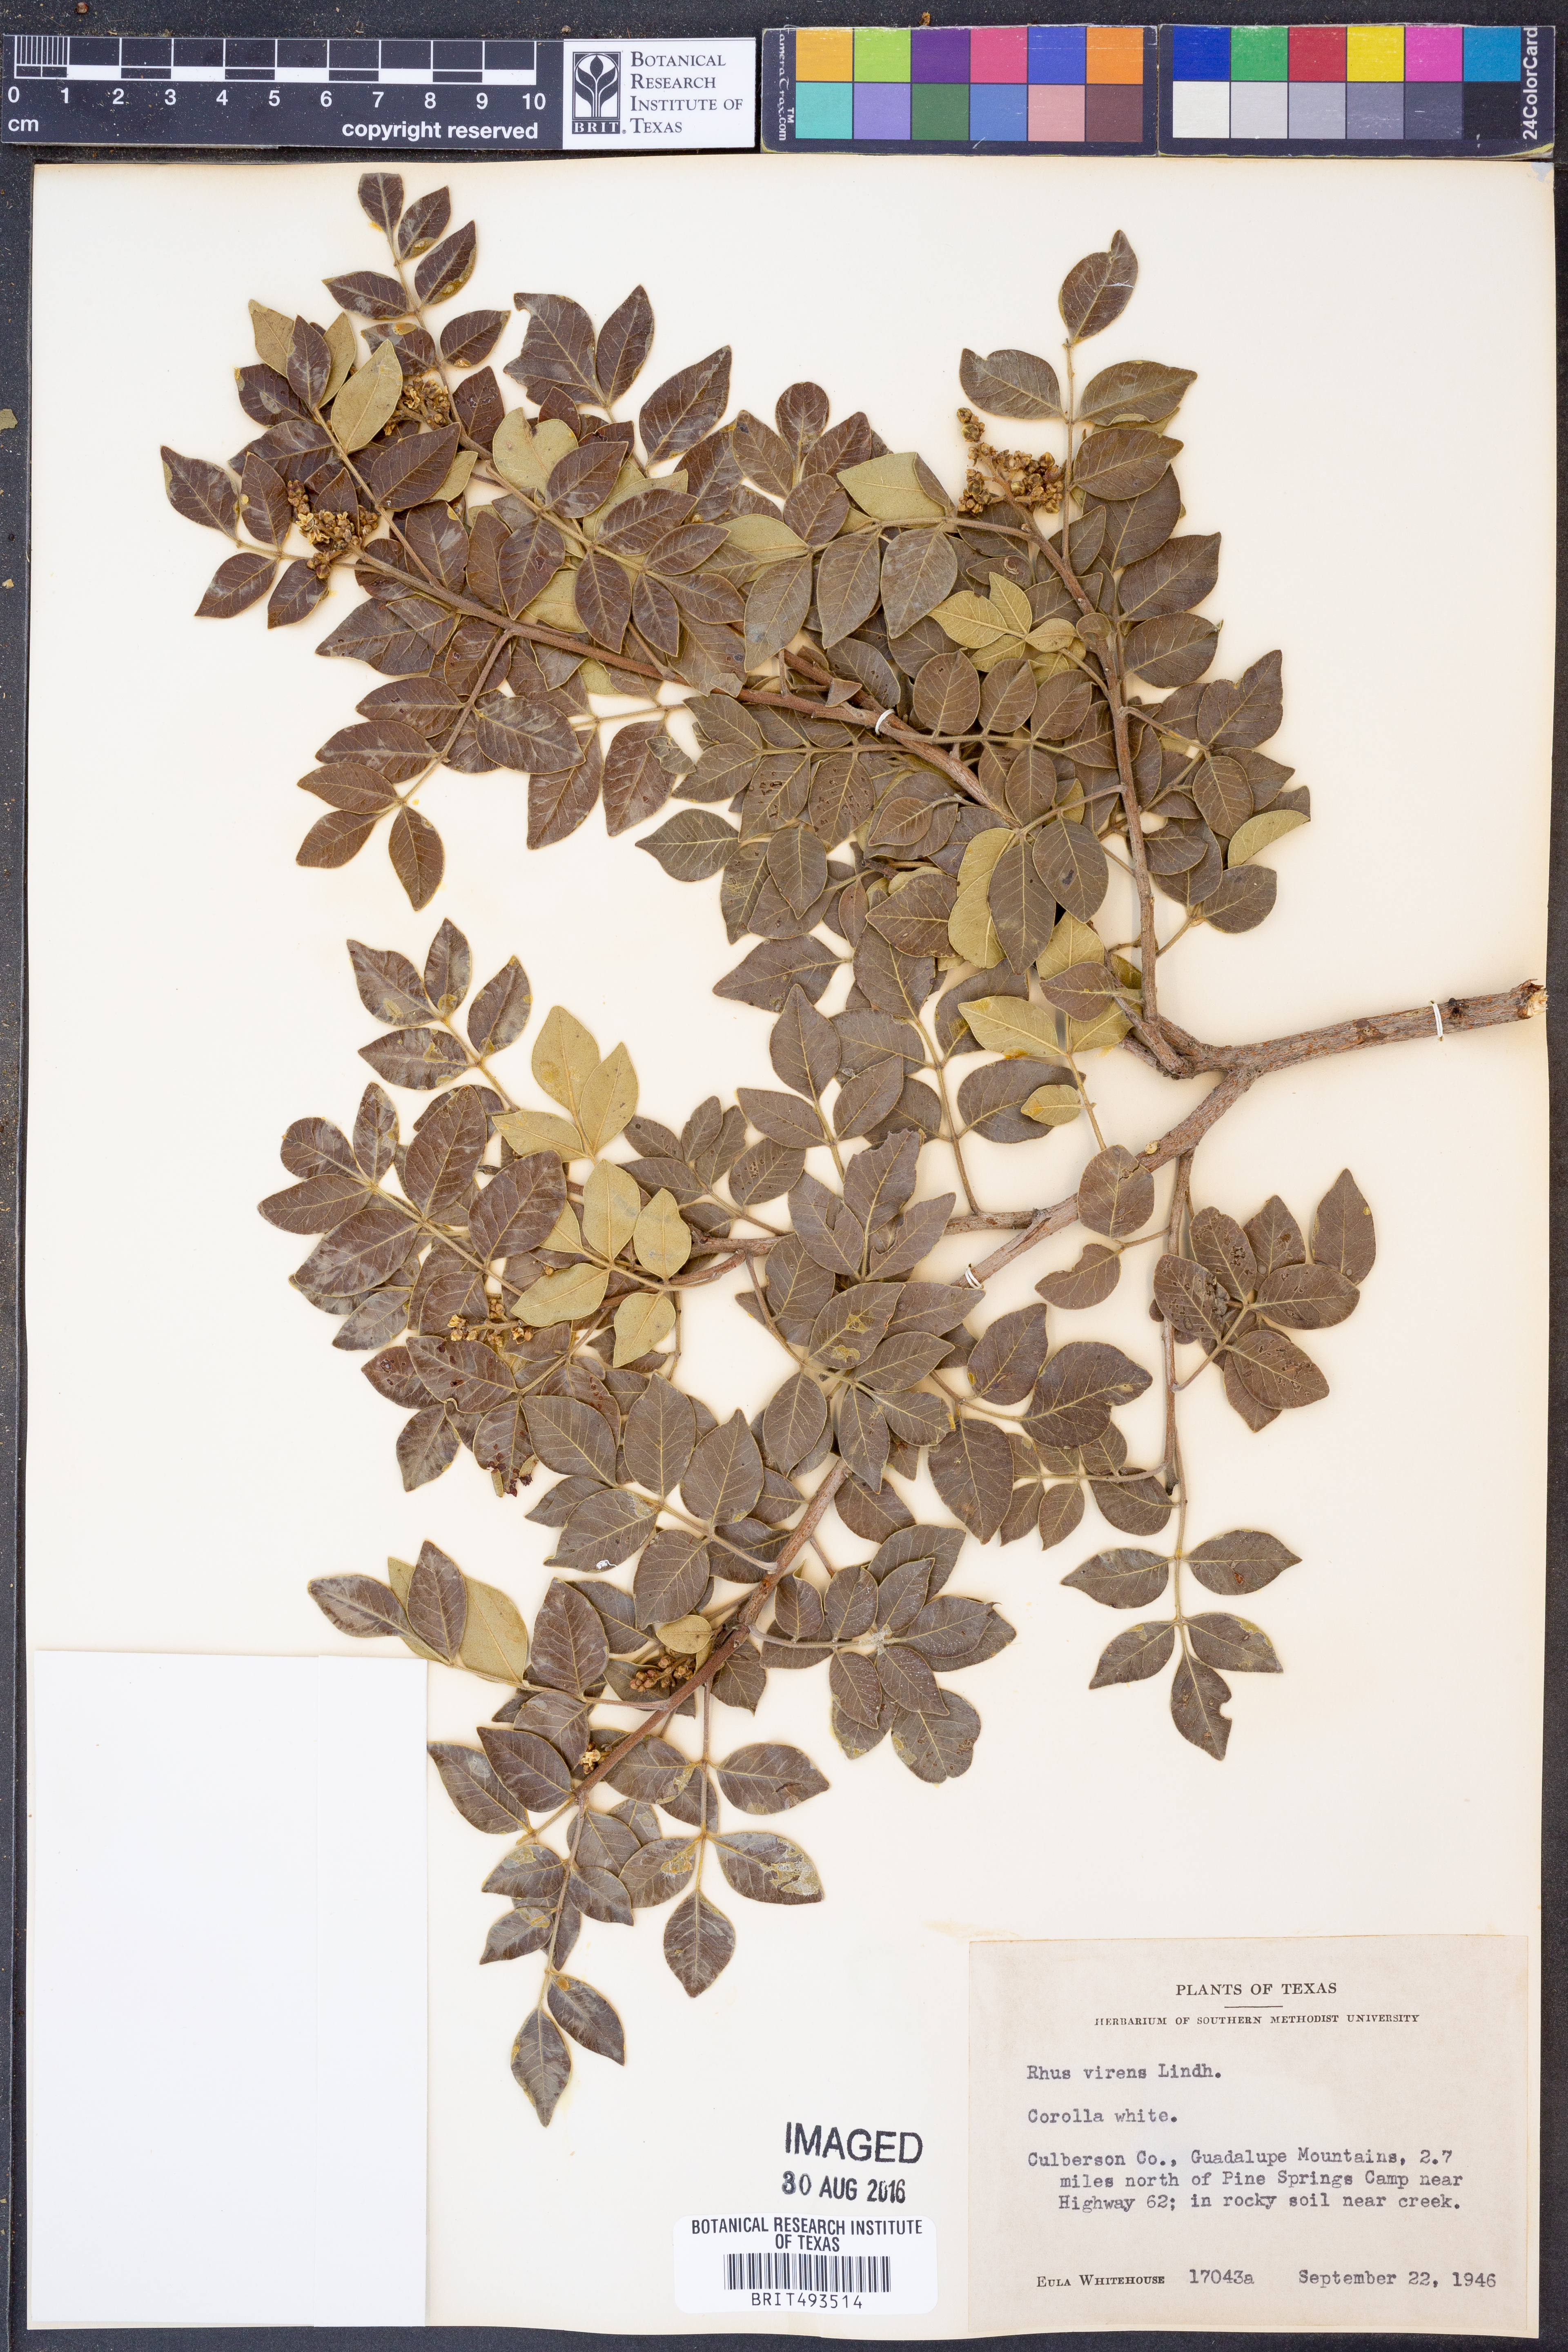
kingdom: Plantae
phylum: Tracheophyta
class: Magnoliopsida
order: Sapindales
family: Anacardiaceae
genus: Rhus
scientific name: Rhus virens
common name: Evergreen sumac
